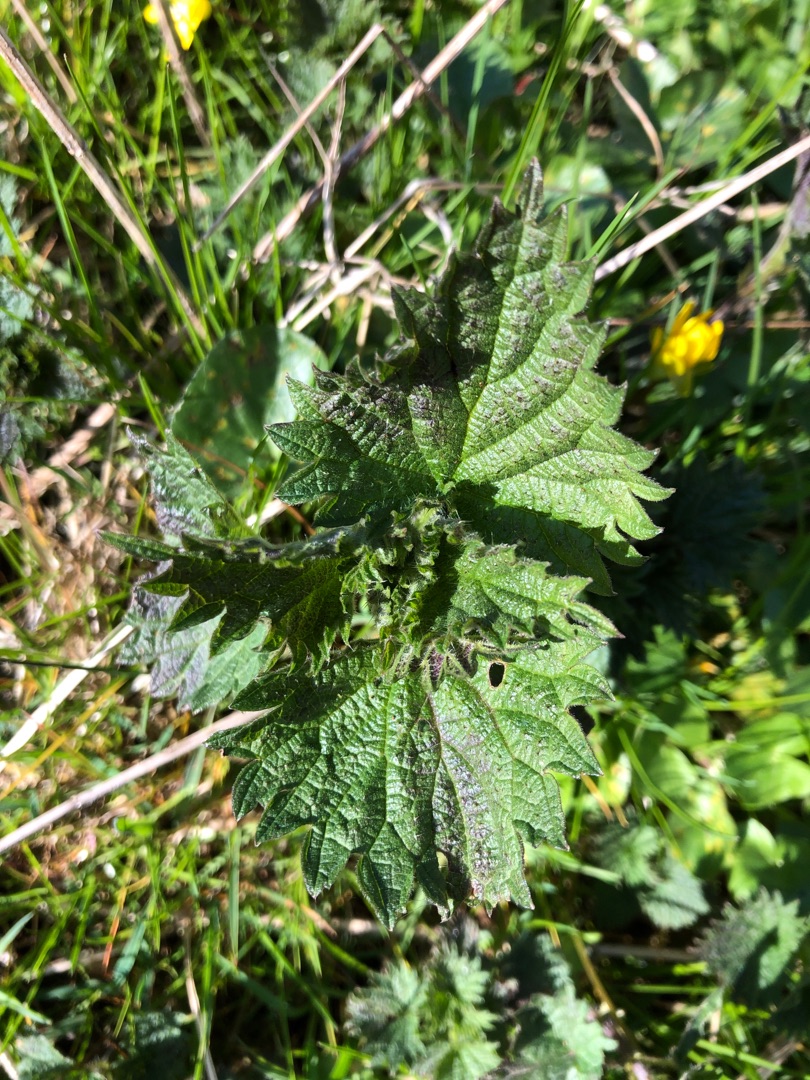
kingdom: Plantae
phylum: Tracheophyta
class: Magnoliopsida
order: Rosales
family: Urticaceae
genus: Urtica
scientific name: Urtica dioica
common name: Stor nælde
